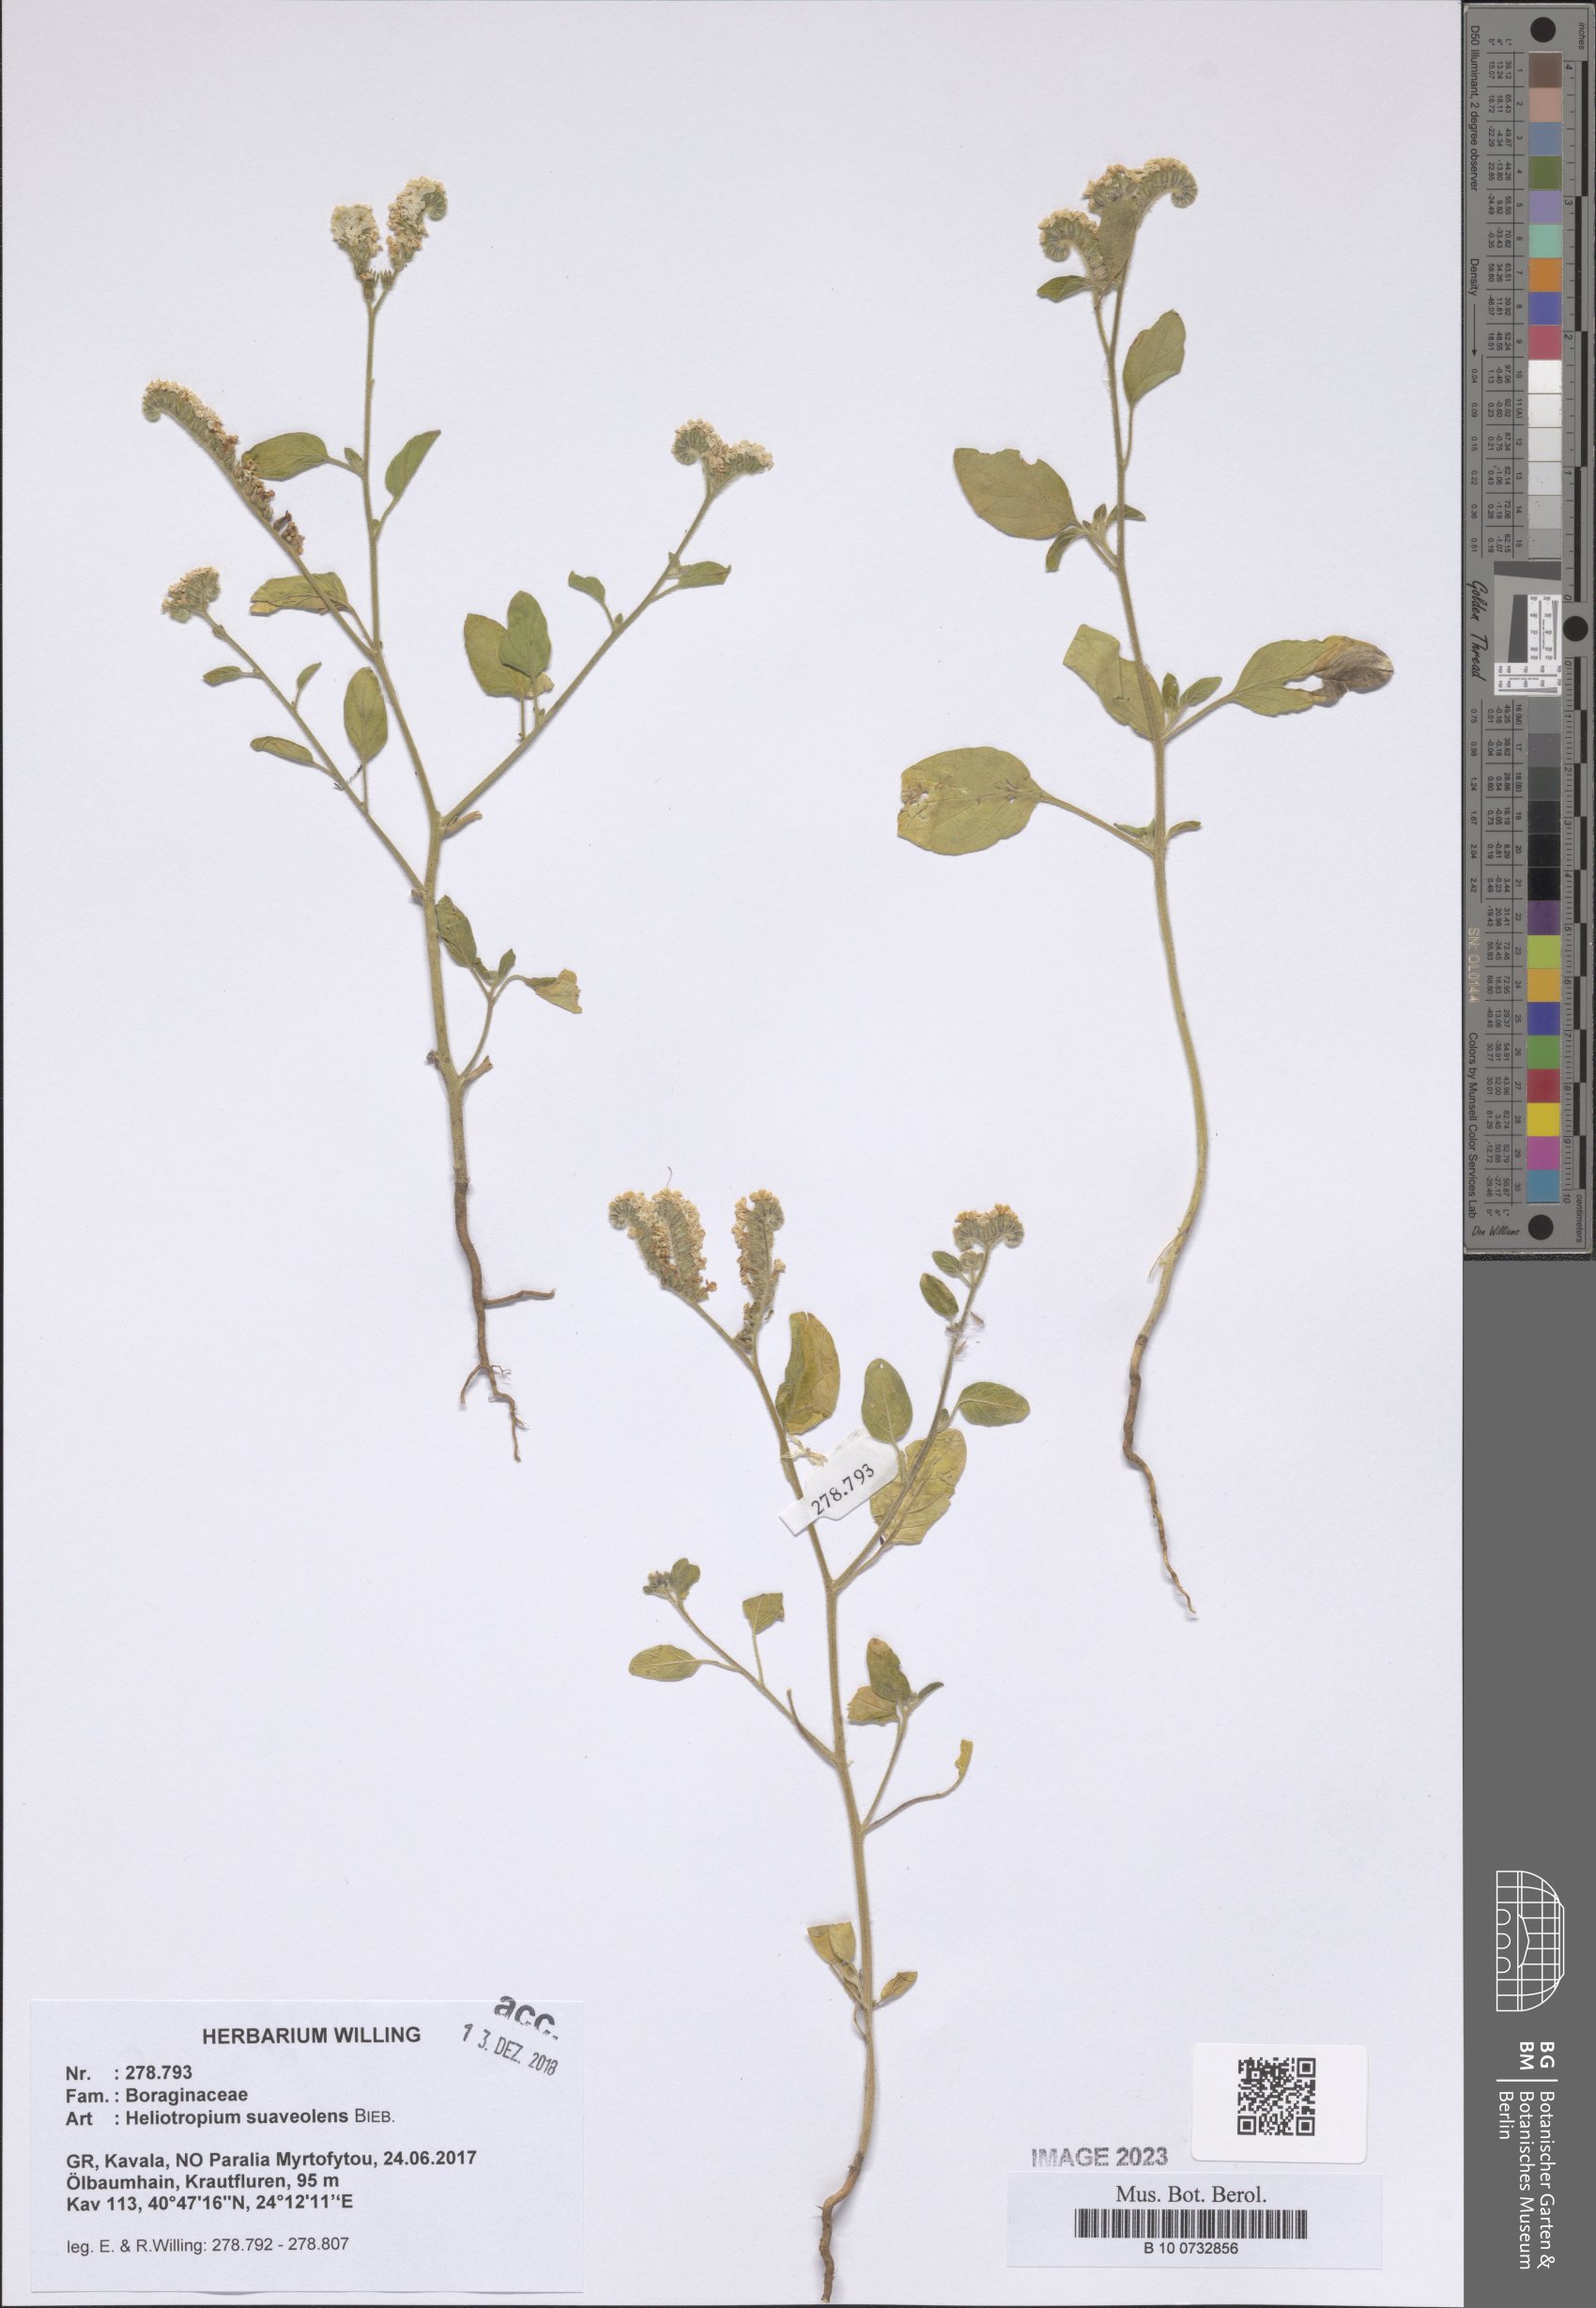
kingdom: Plantae
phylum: Tracheophyta
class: Magnoliopsida
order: Boraginales
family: Heliotropiaceae
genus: Heliotropium
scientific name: Heliotropium suaveolens
